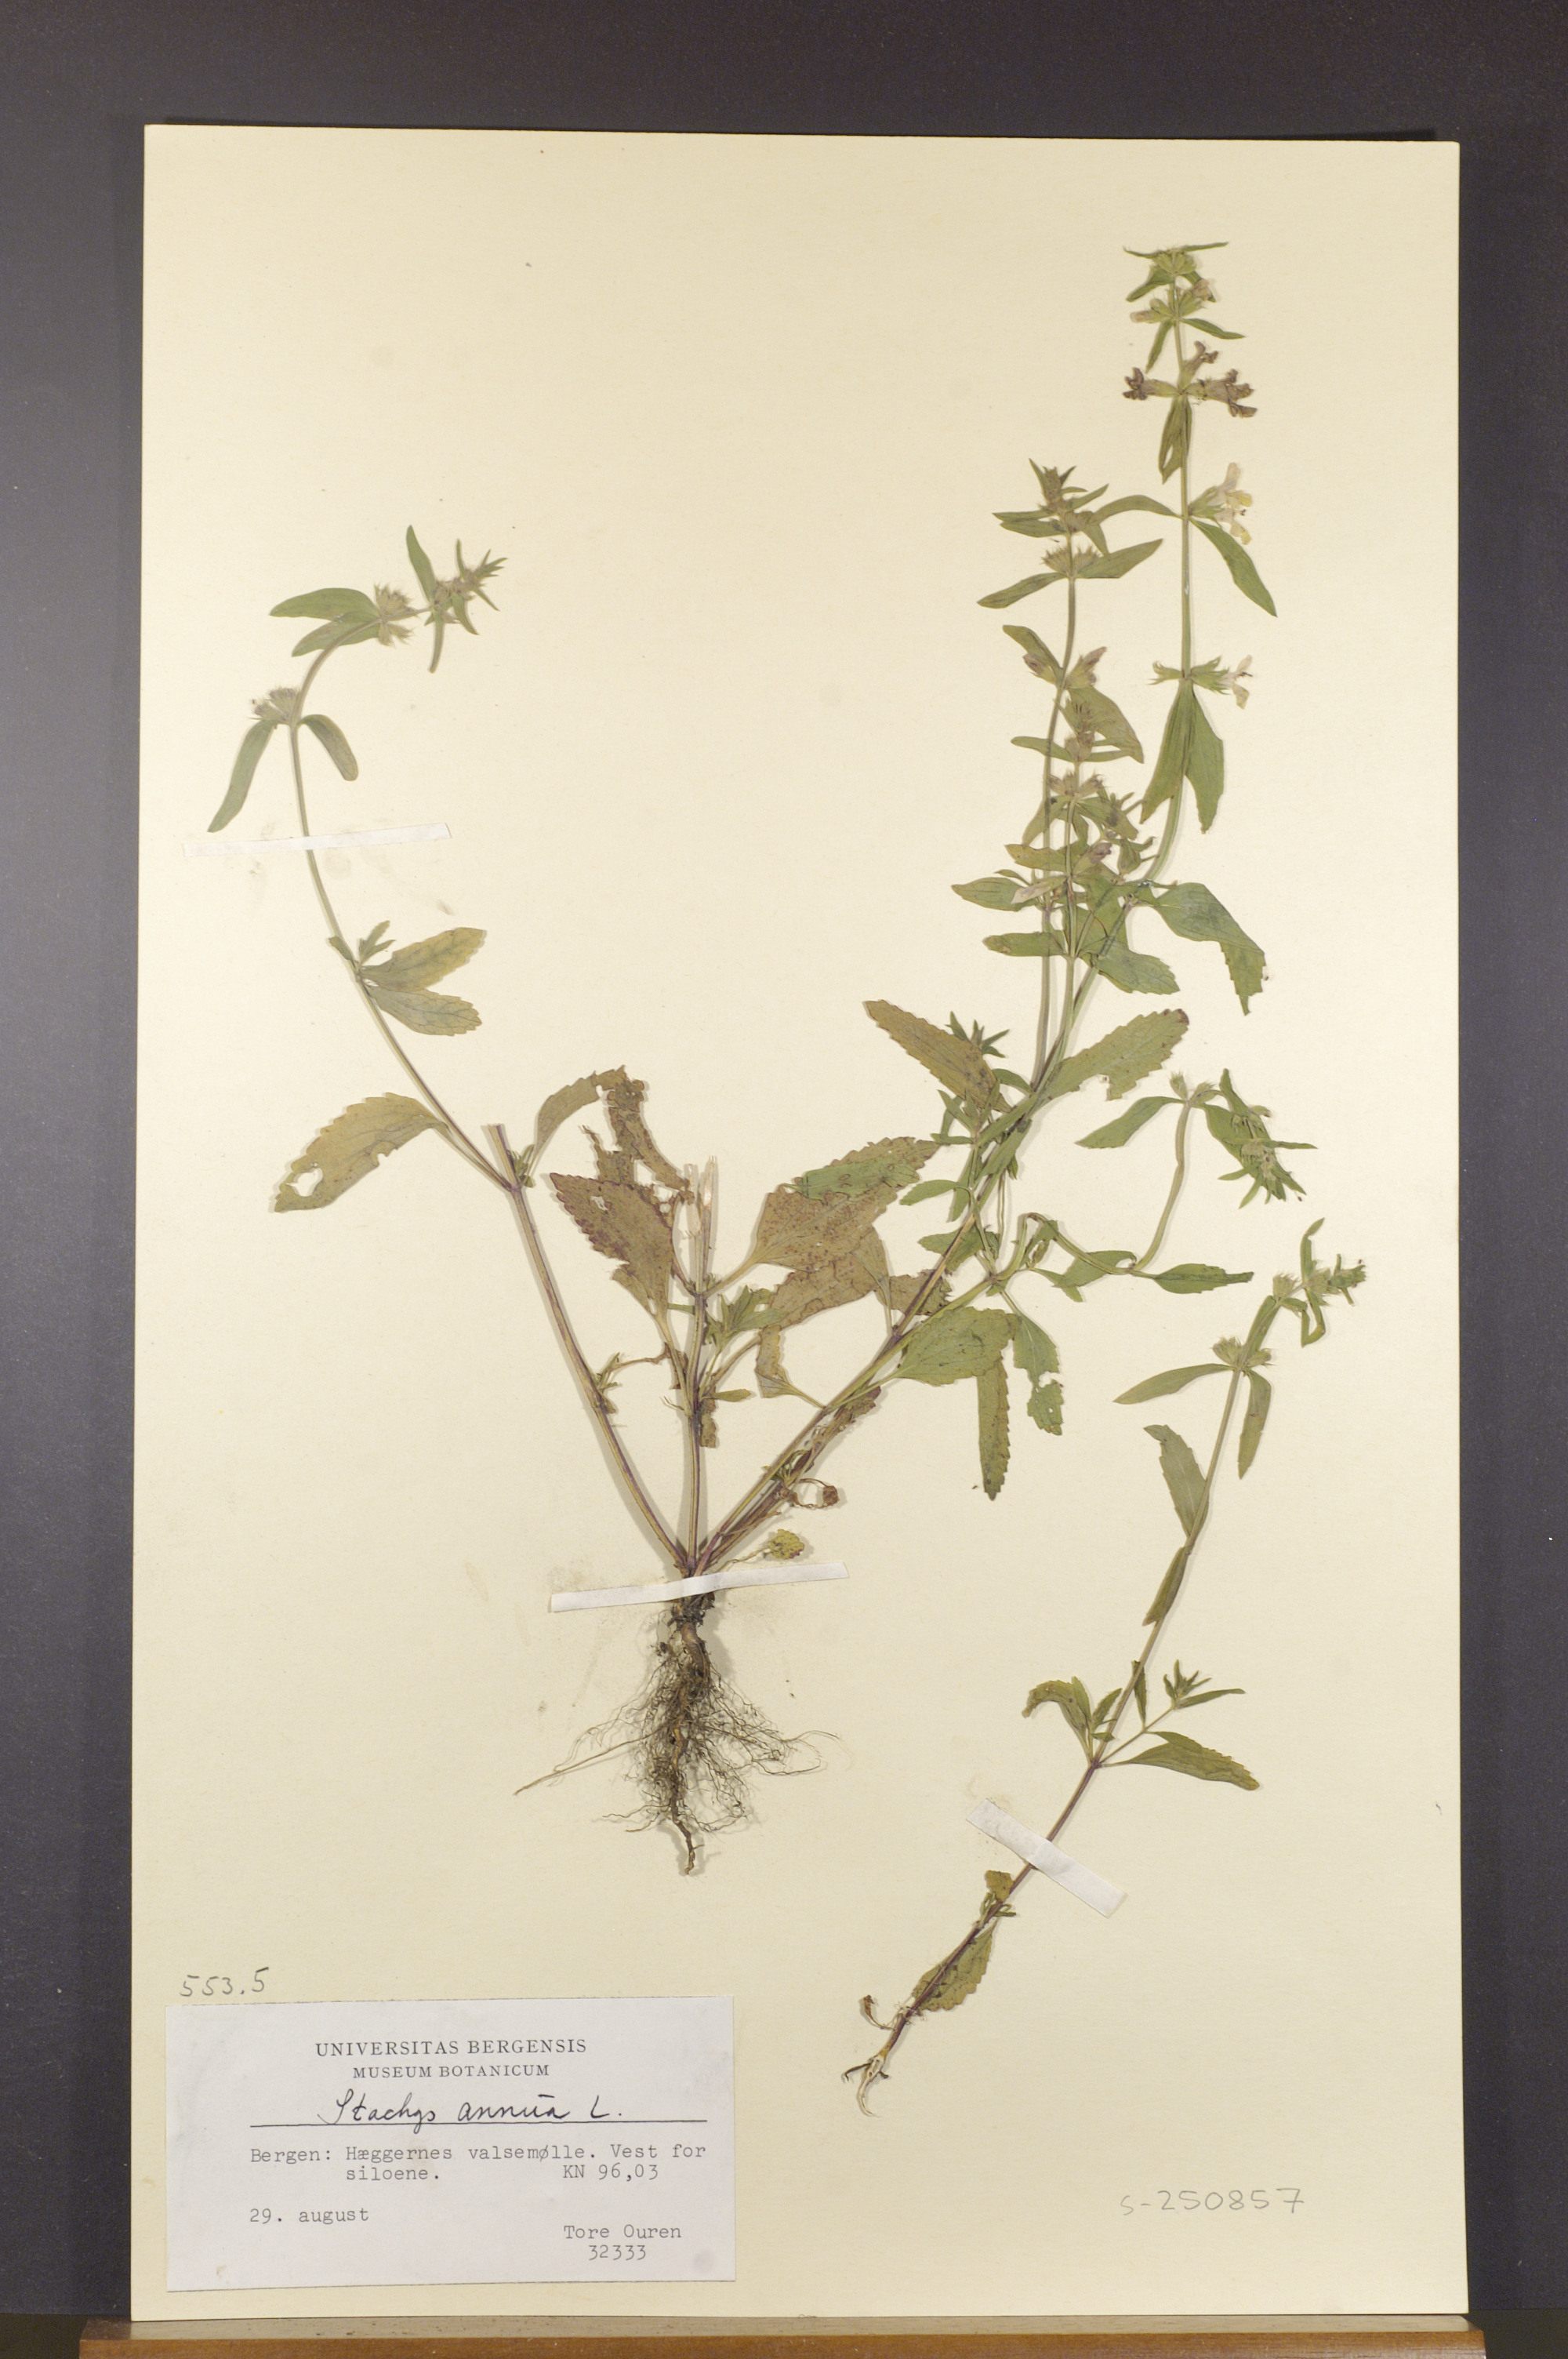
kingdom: Plantae
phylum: Tracheophyta
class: Magnoliopsida
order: Lamiales
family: Lamiaceae
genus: Stachys
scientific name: Stachys annua
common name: Annual yellow-woundwort
